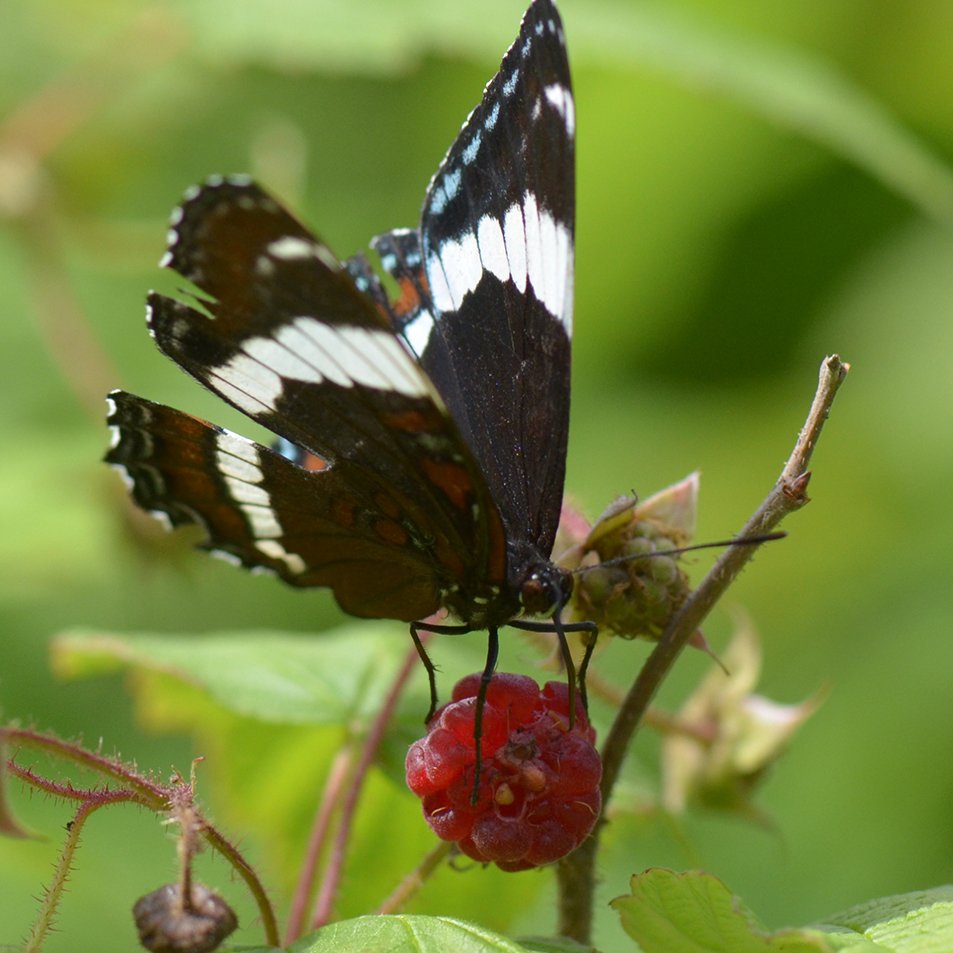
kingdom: Animalia
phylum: Arthropoda
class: Insecta
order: Lepidoptera
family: Nymphalidae
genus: Limenitis
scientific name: Limenitis arthemis
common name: Red-spotted Admiral
